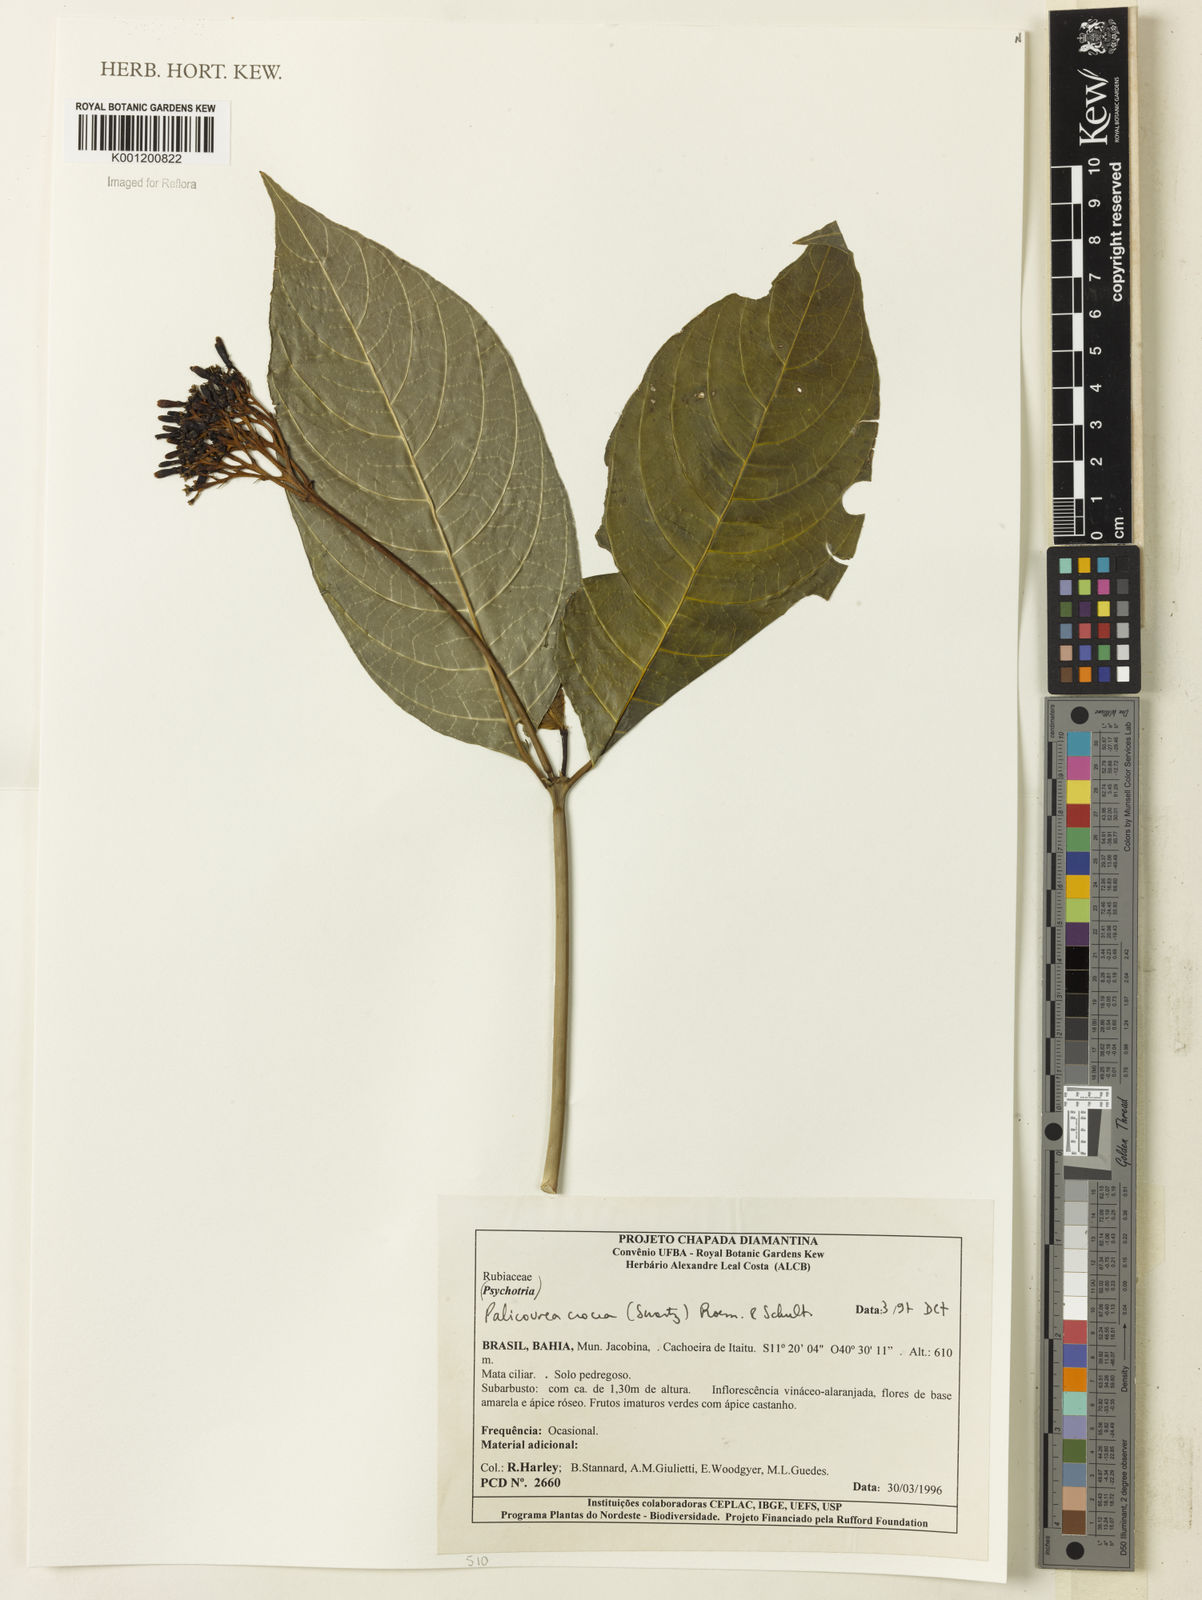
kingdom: Plantae
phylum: Tracheophyta
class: Magnoliopsida
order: Gentianales
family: Rubiaceae
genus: Palicourea
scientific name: Palicourea crocea
